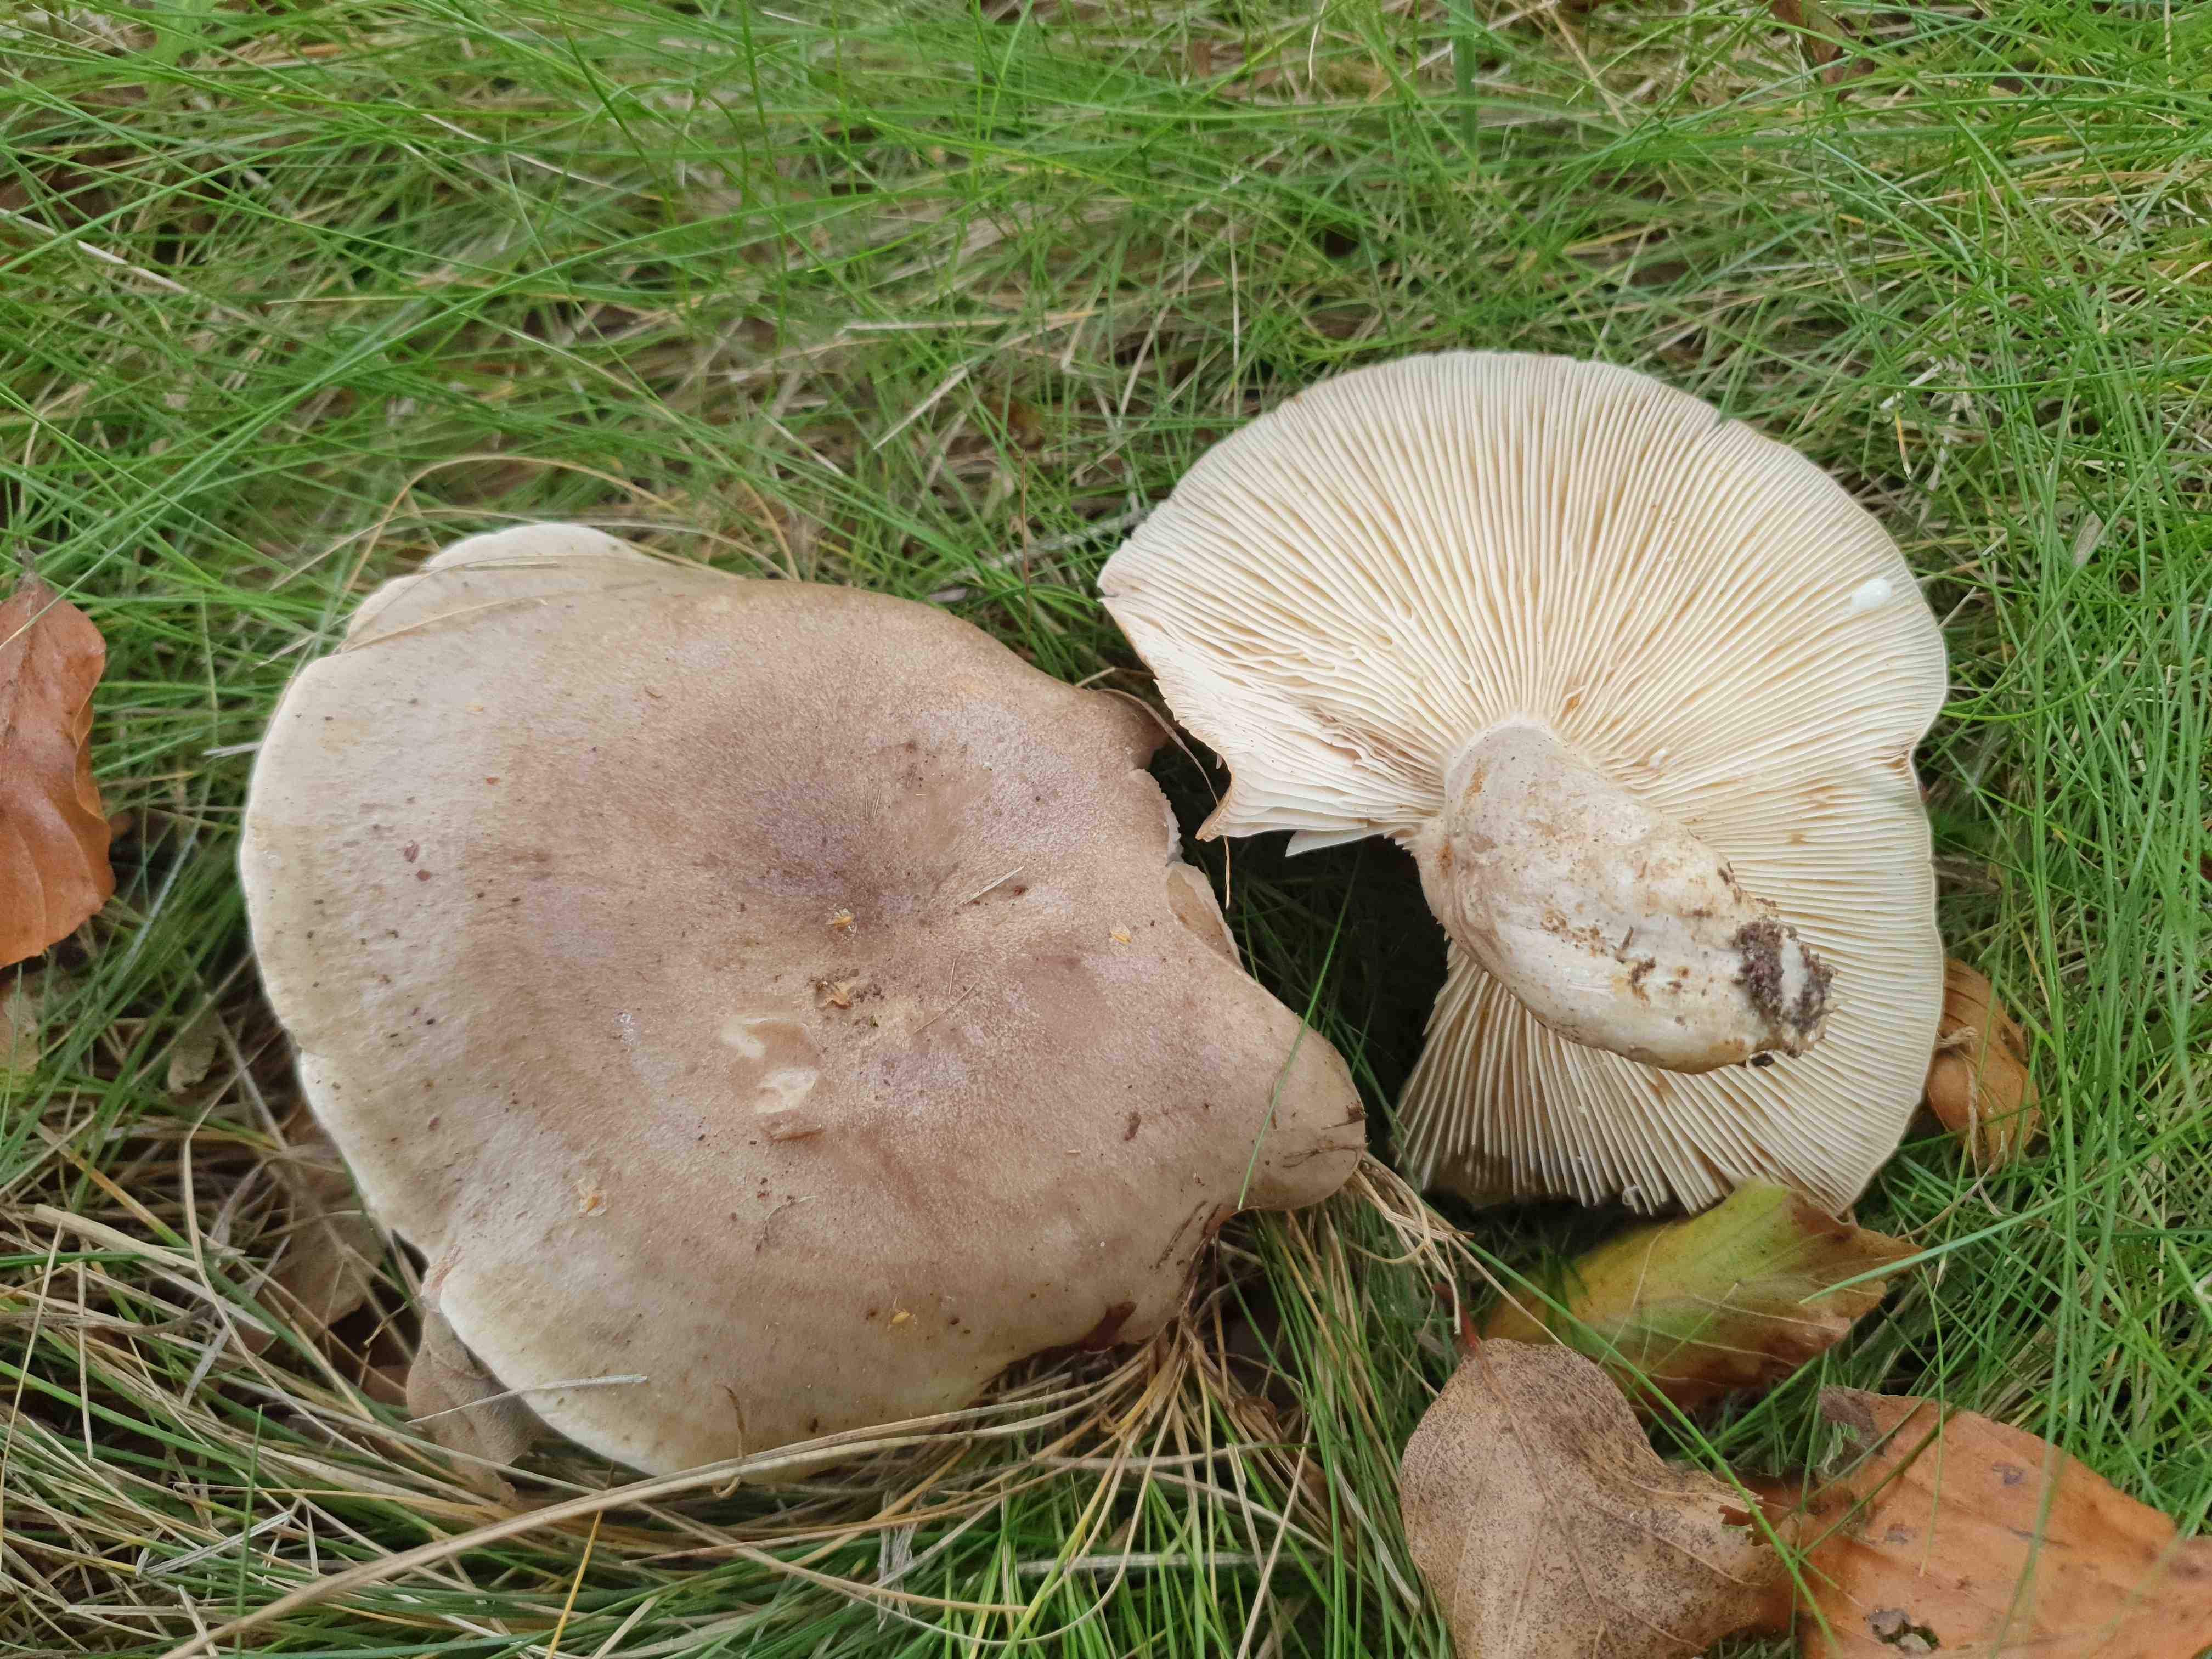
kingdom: Fungi
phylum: Basidiomycota
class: Agaricomycetes
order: Russulales
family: Russulaceae
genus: Lactarius
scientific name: Lactarius fluens
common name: lysrandet mælkehat
